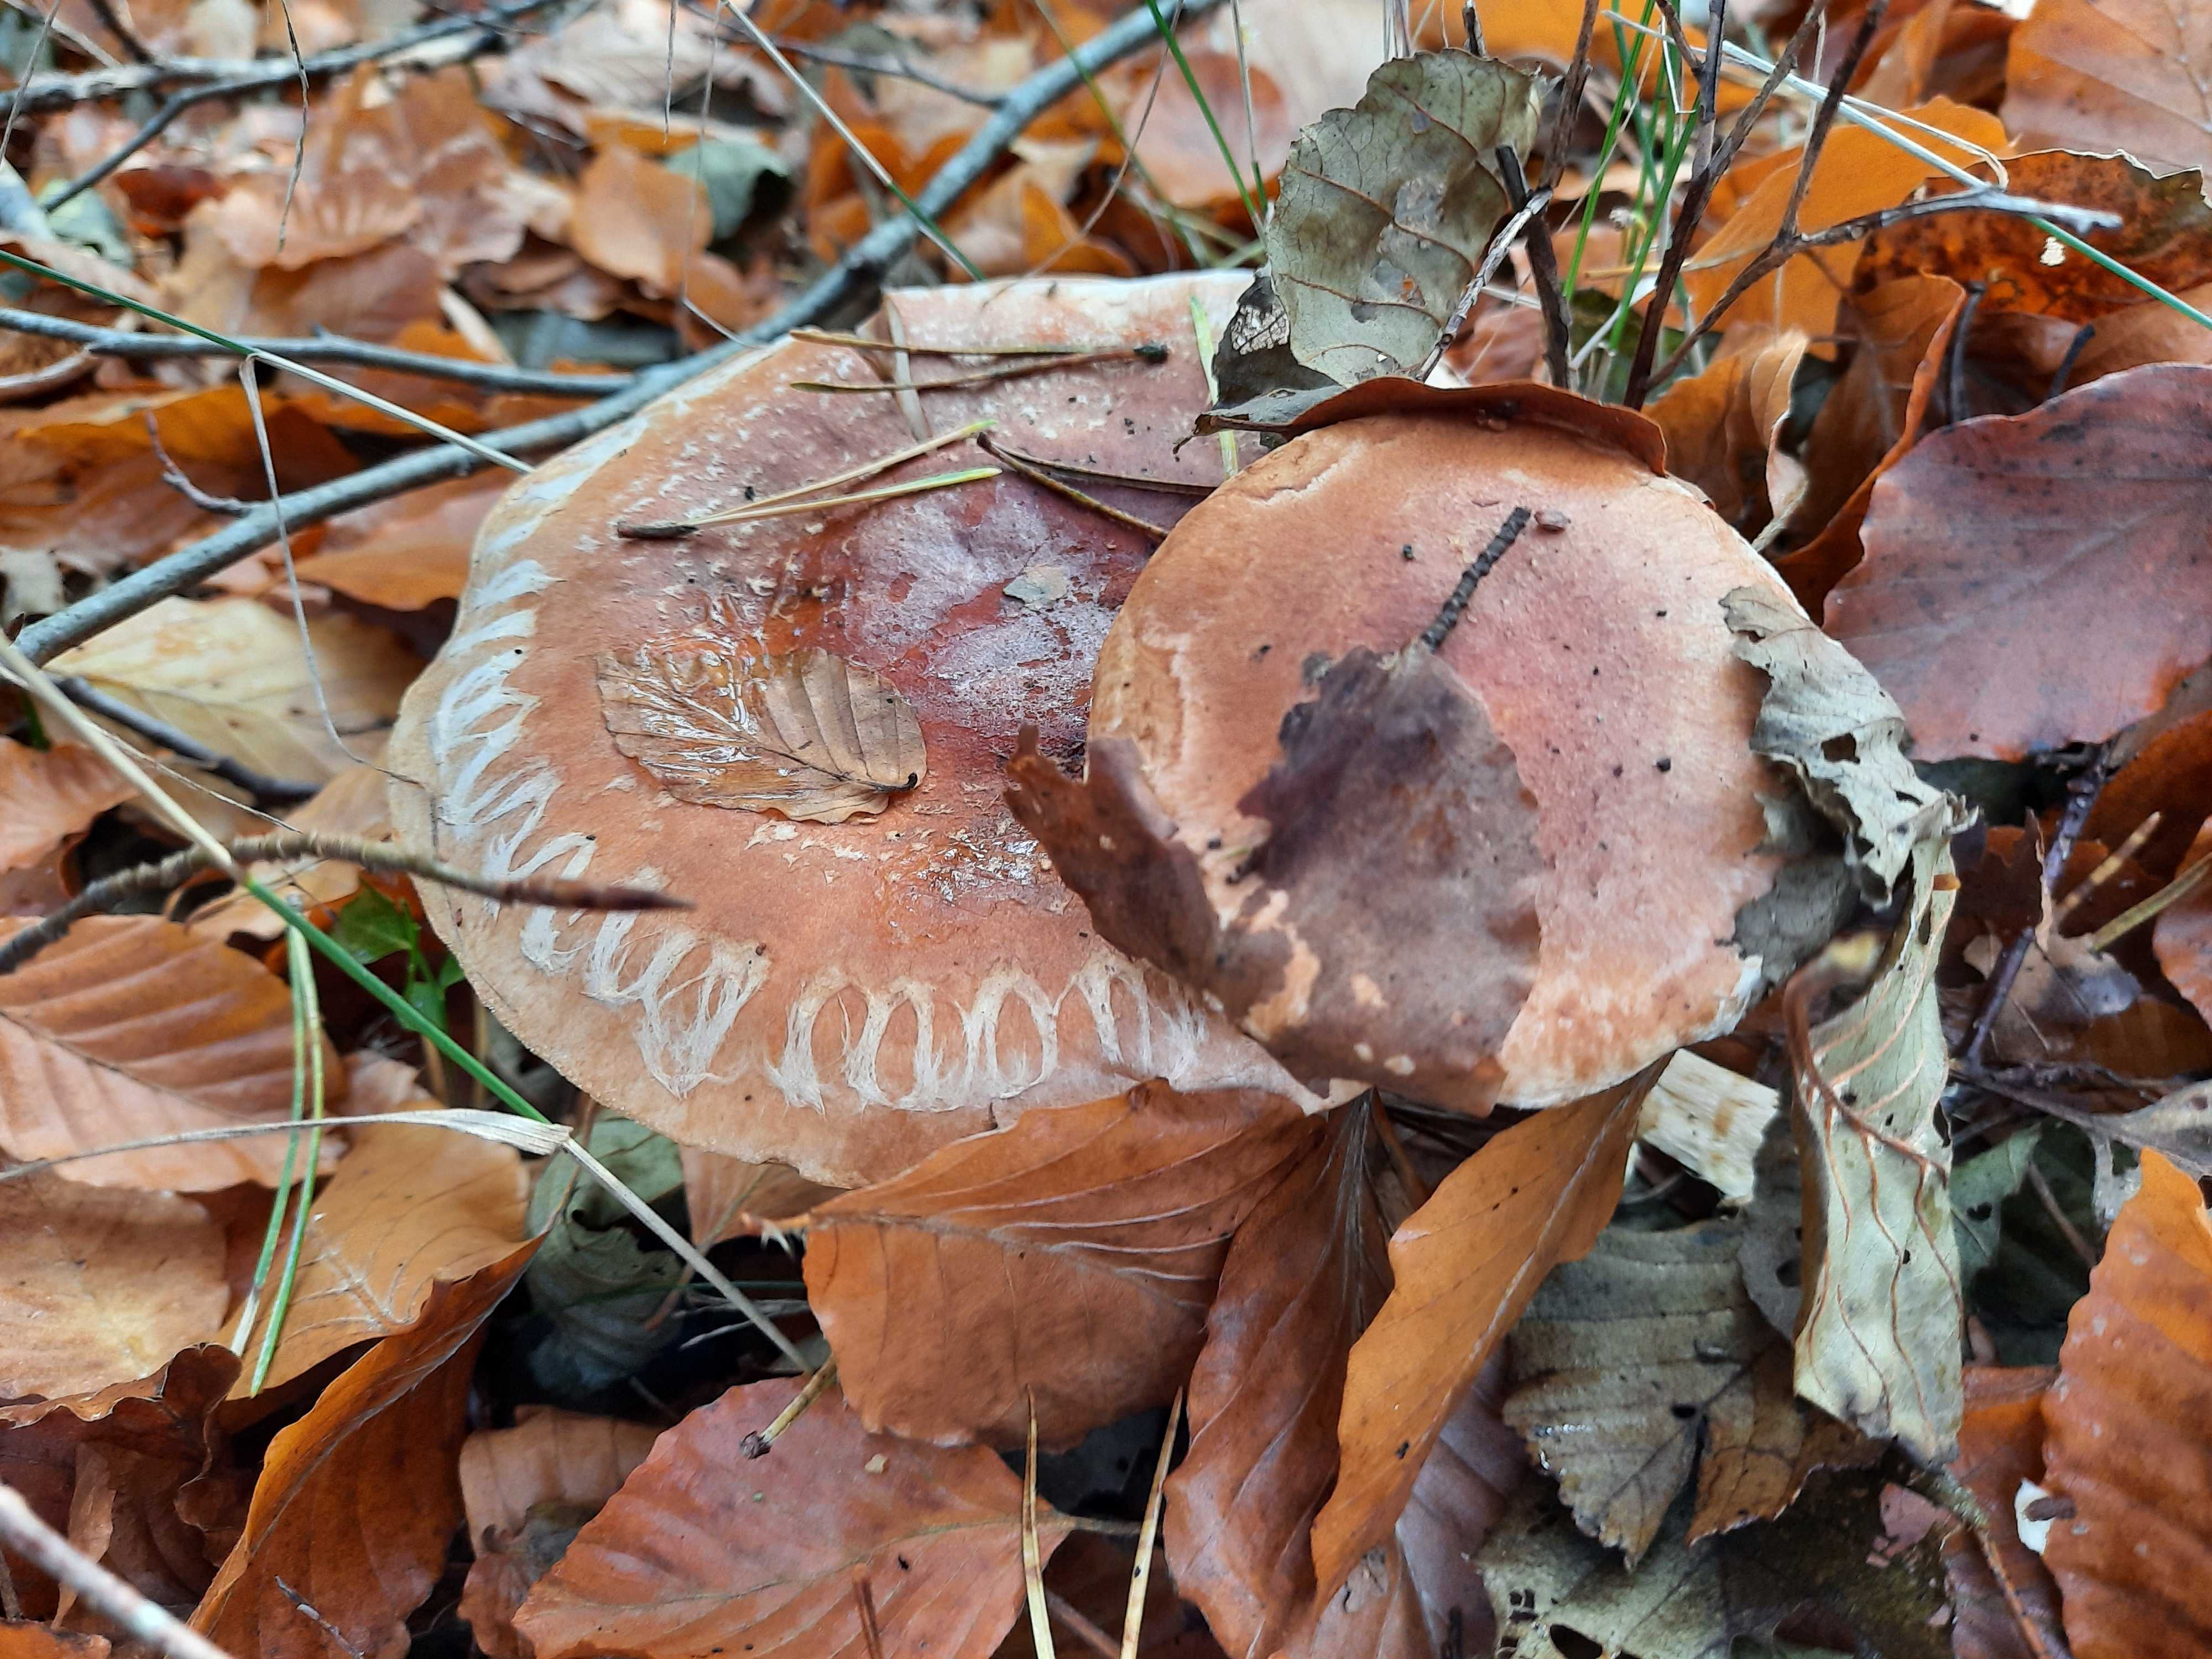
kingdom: Fungi
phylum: Basidiomycota
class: Agaricomycetes
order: Agaricales
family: Cortinariaceae
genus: Phlegmacium
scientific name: Phlegmacium vulpinum
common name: ringbæltet slørhat
